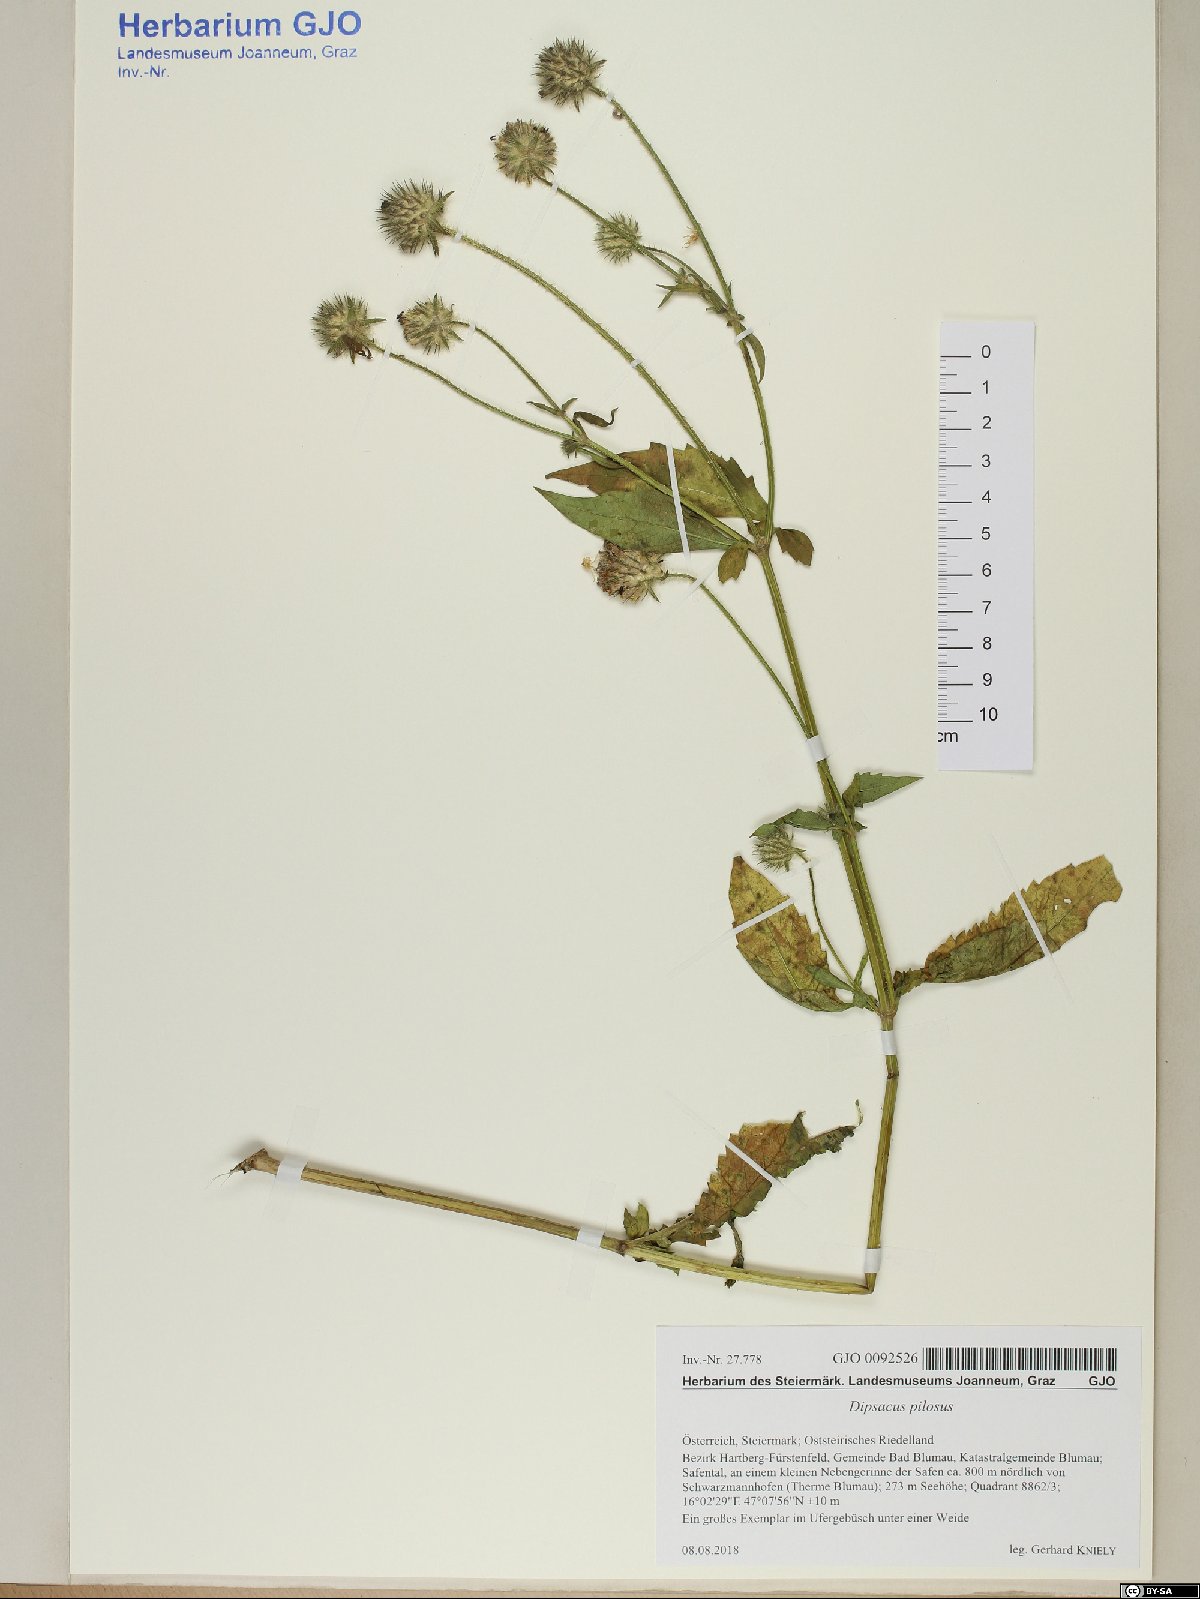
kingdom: Plantae
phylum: Tracheophyta
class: Magnoliopsida
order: Dipsacales
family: Caprifoliaceae
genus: Dipsacus
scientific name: Dipsacus pilosus
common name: Small teasel
